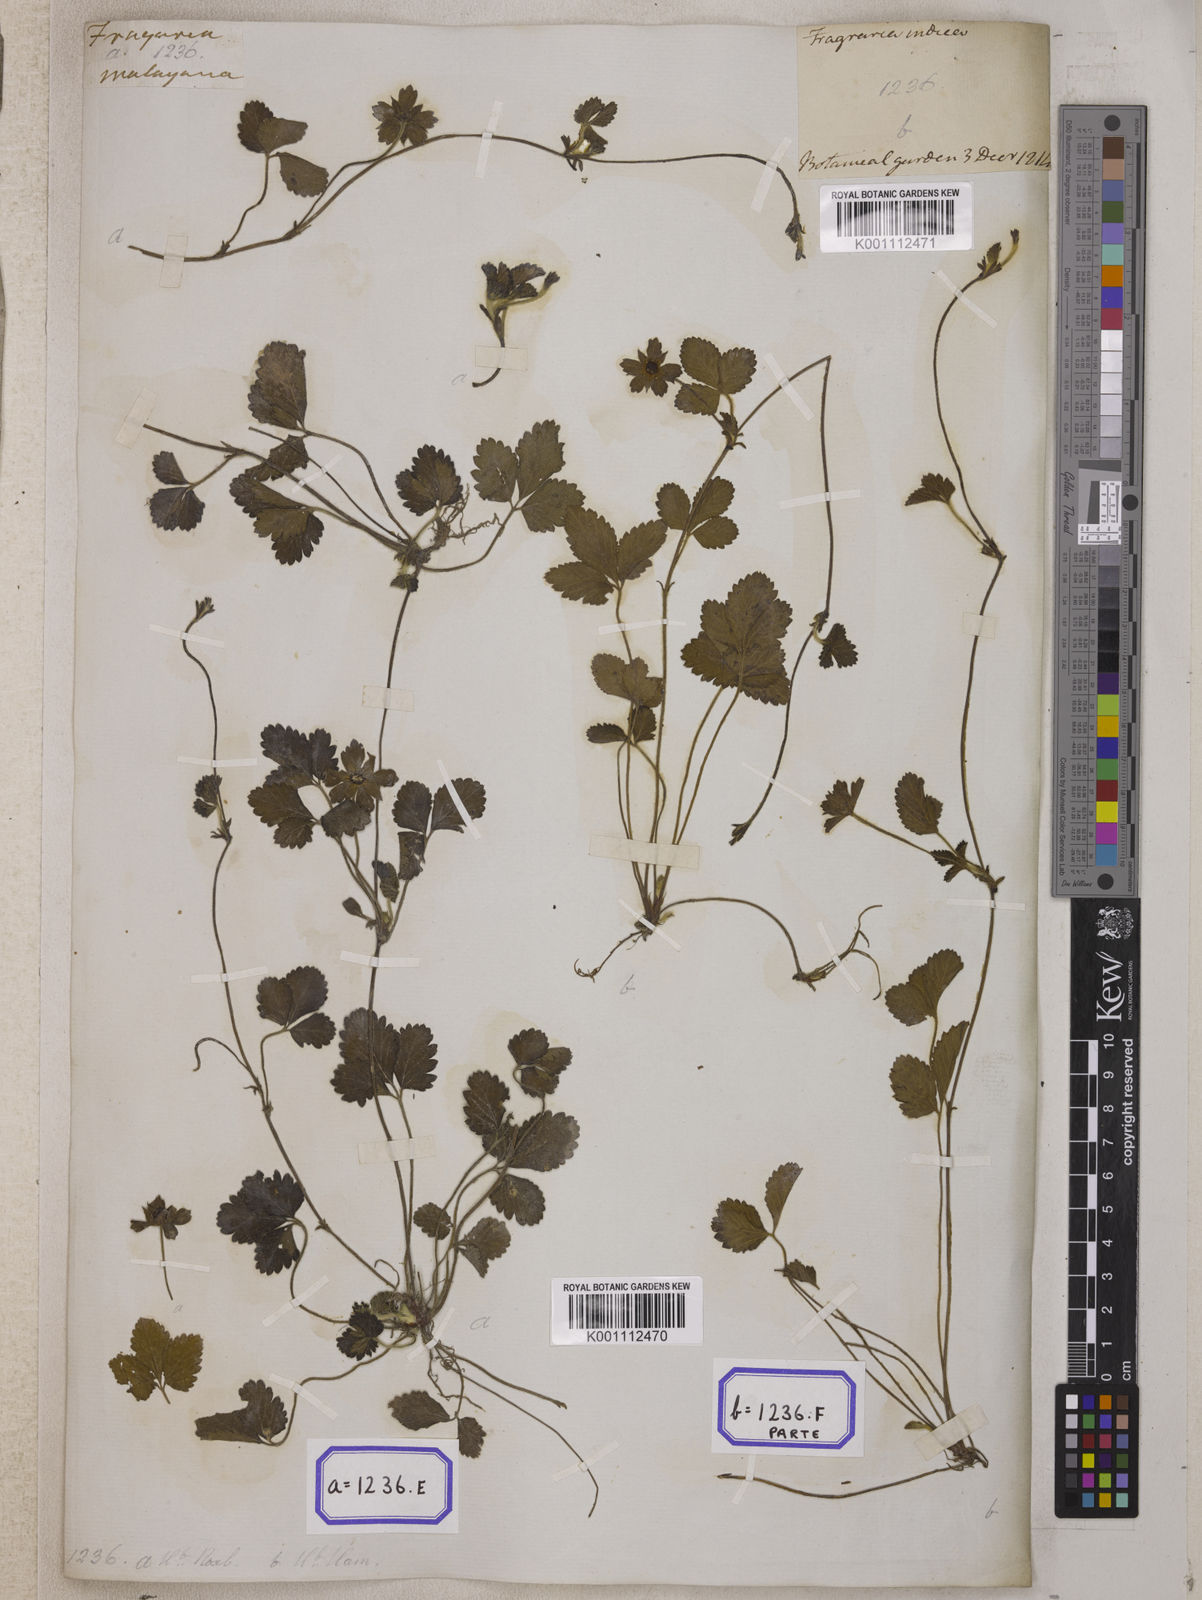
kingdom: Plantae
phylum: Tracheophyta
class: Magnoliopsida
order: Rosales
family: Rosaceae
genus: Potentilla
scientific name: Potentilla indica
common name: Yellow-flowered strawberry
